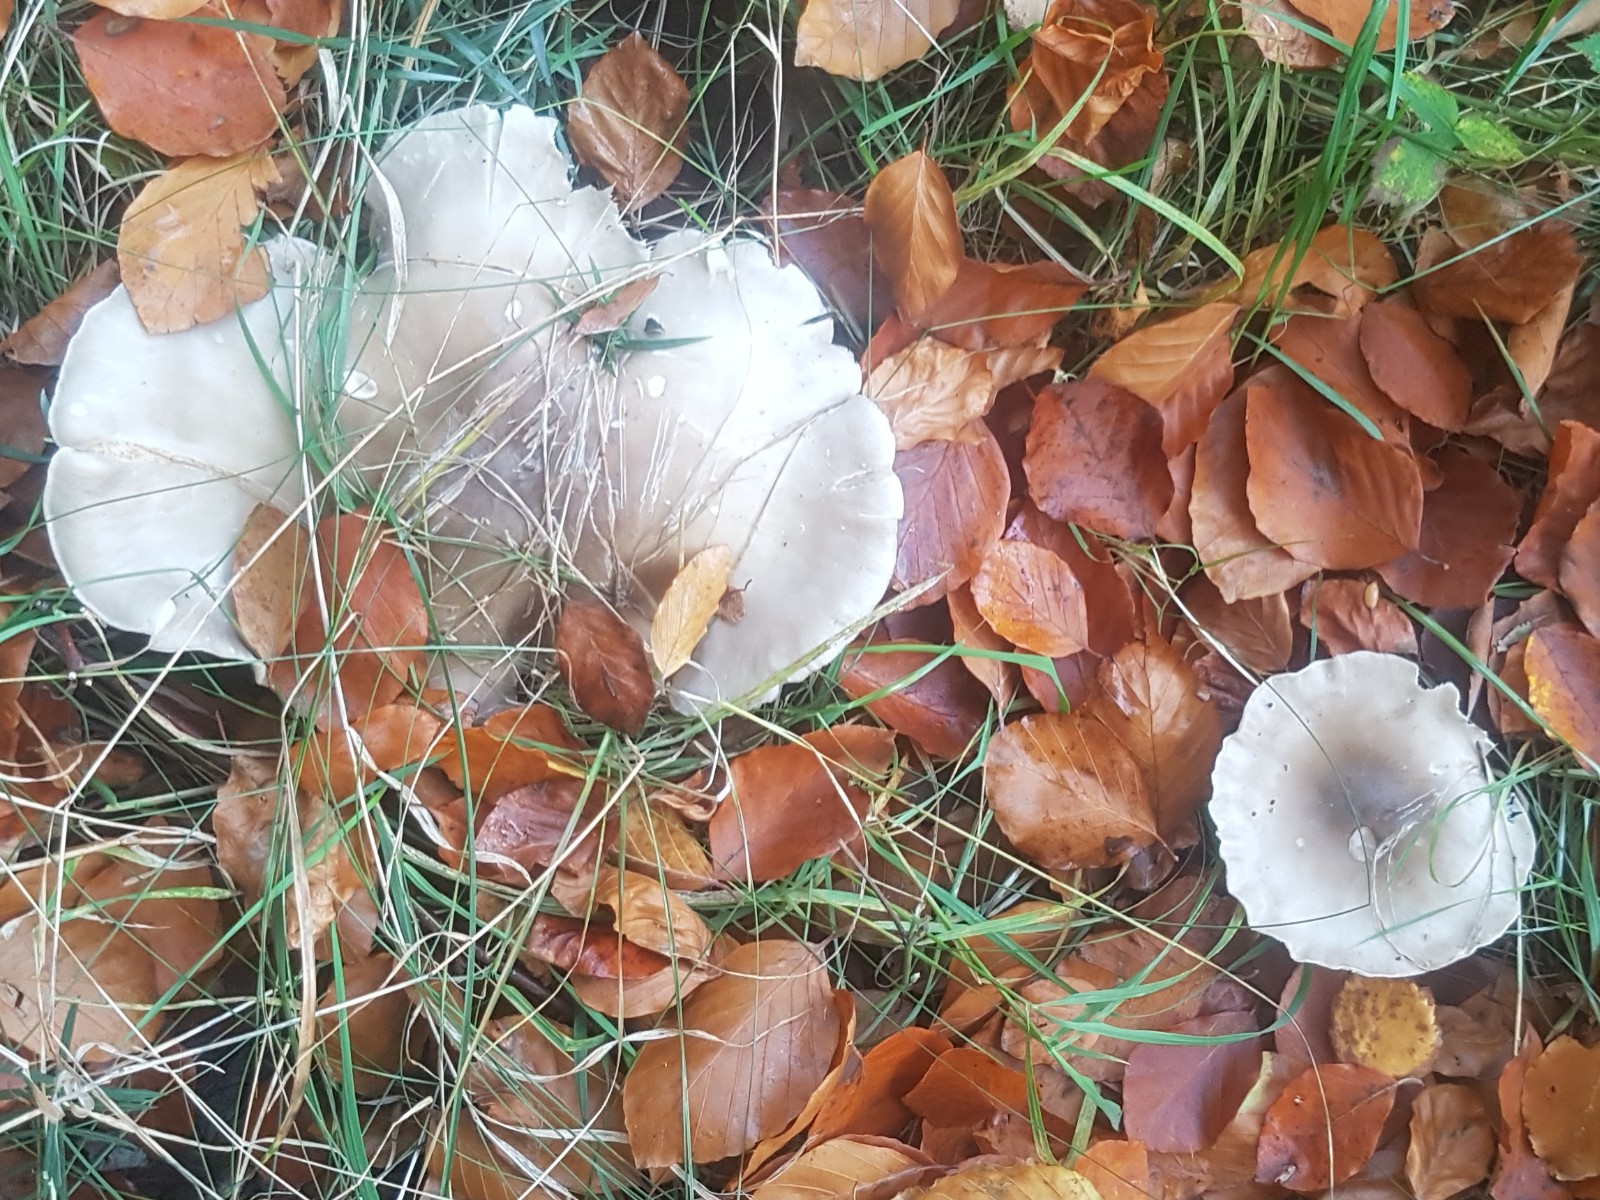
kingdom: Fungi
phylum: Basidiomycota
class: Agaricomycetes
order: Agaricales
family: Tricholomataceae
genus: Clitocybe
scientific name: Clitocybe nebularis
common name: tåge-tragthat
